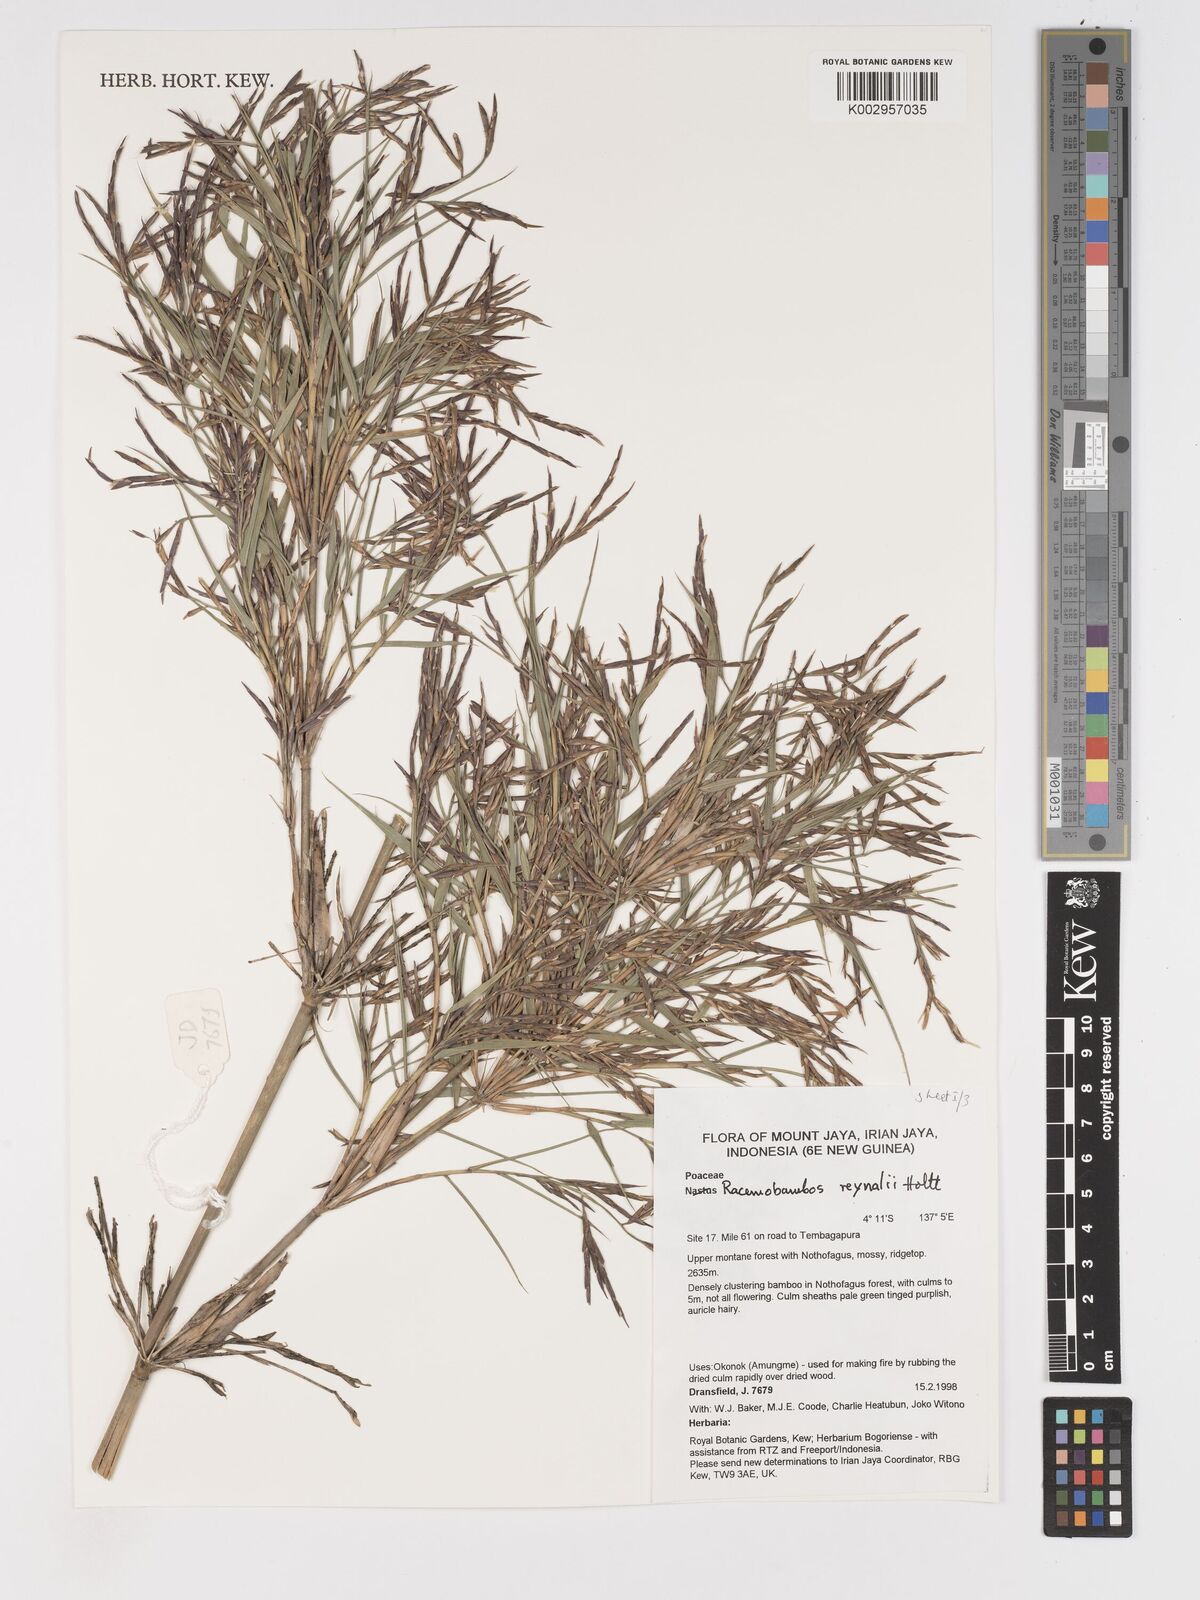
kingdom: Plantae
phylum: Tracheophyta
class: Liliopsida
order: Poales
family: Poaceae
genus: Racemobambos
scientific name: Racemobambos raynalii
